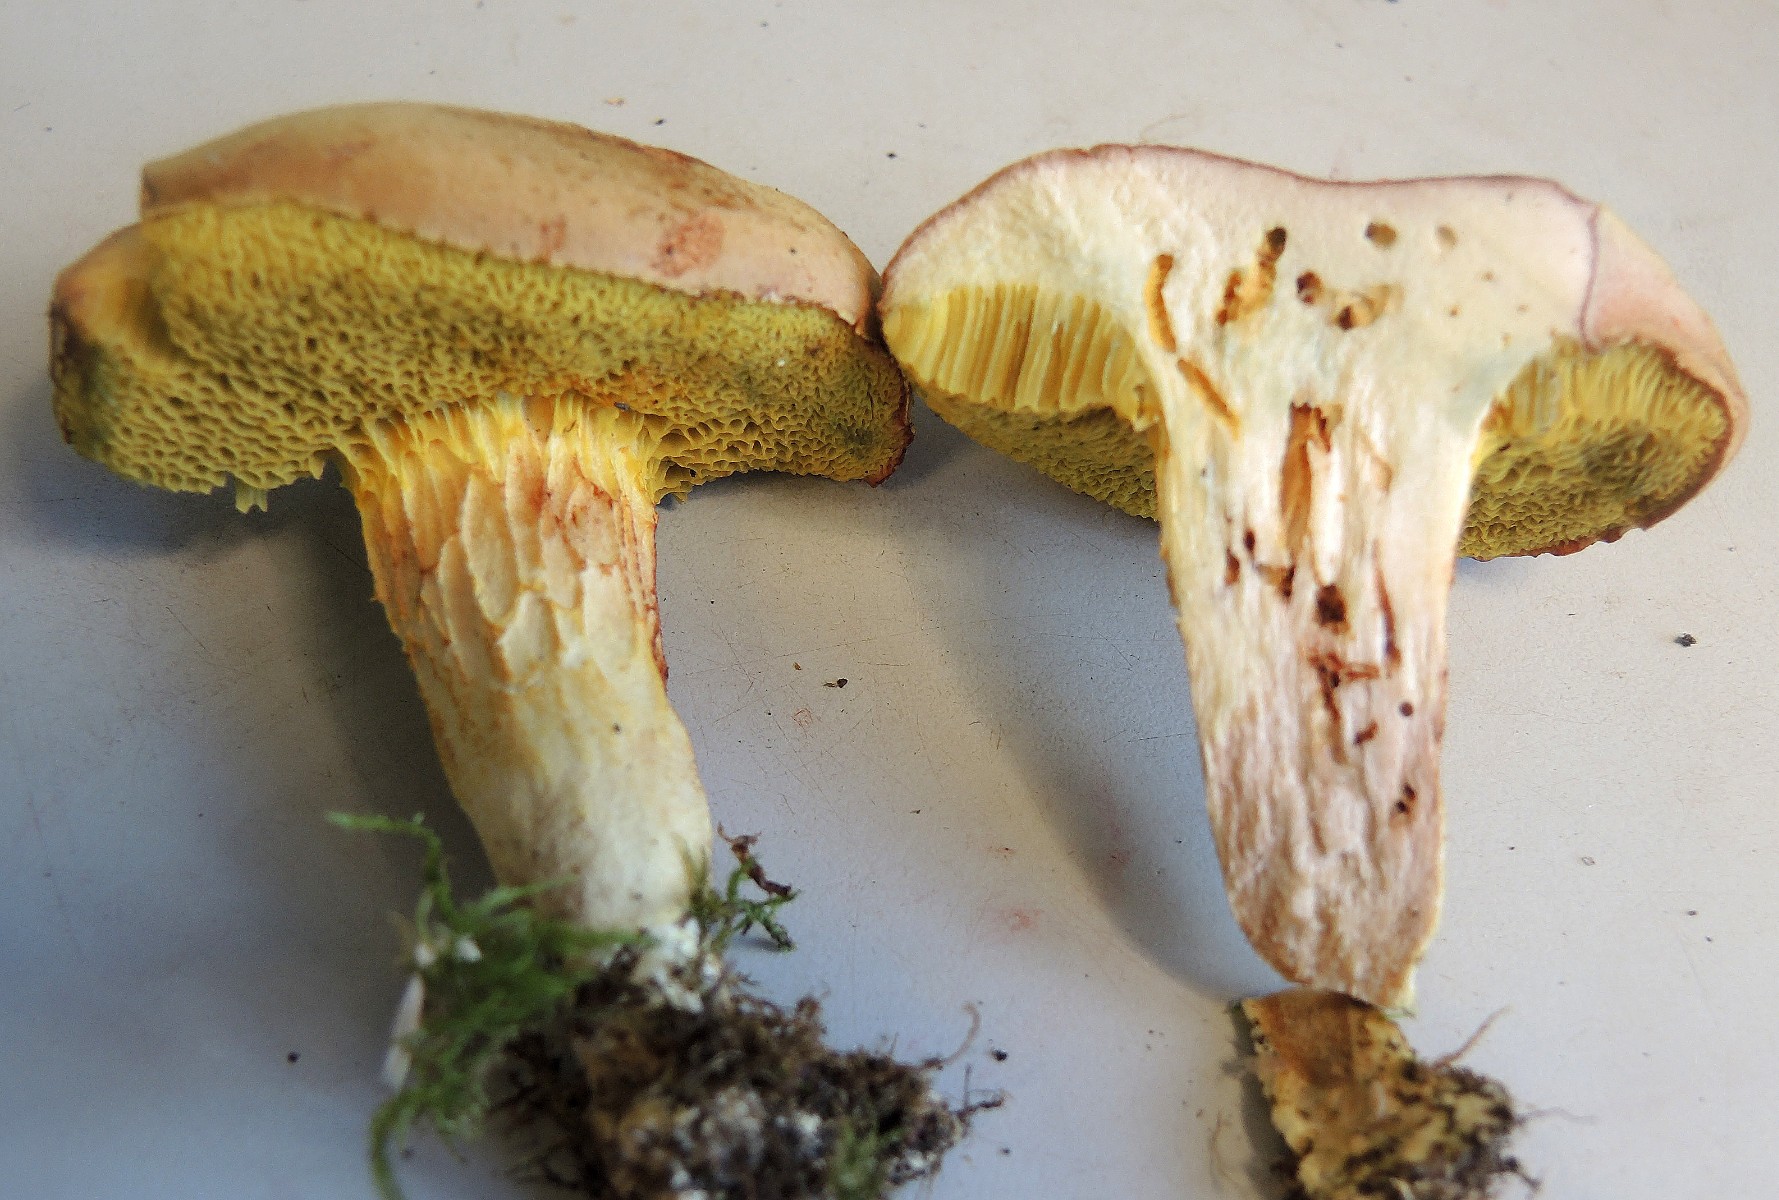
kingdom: Fungi
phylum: Basidiomycota
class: Agaricomycetes
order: Boletales
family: Boletaceae
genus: Xerocomus
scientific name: Xerocomus subtomentosus
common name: filtet rørhat
